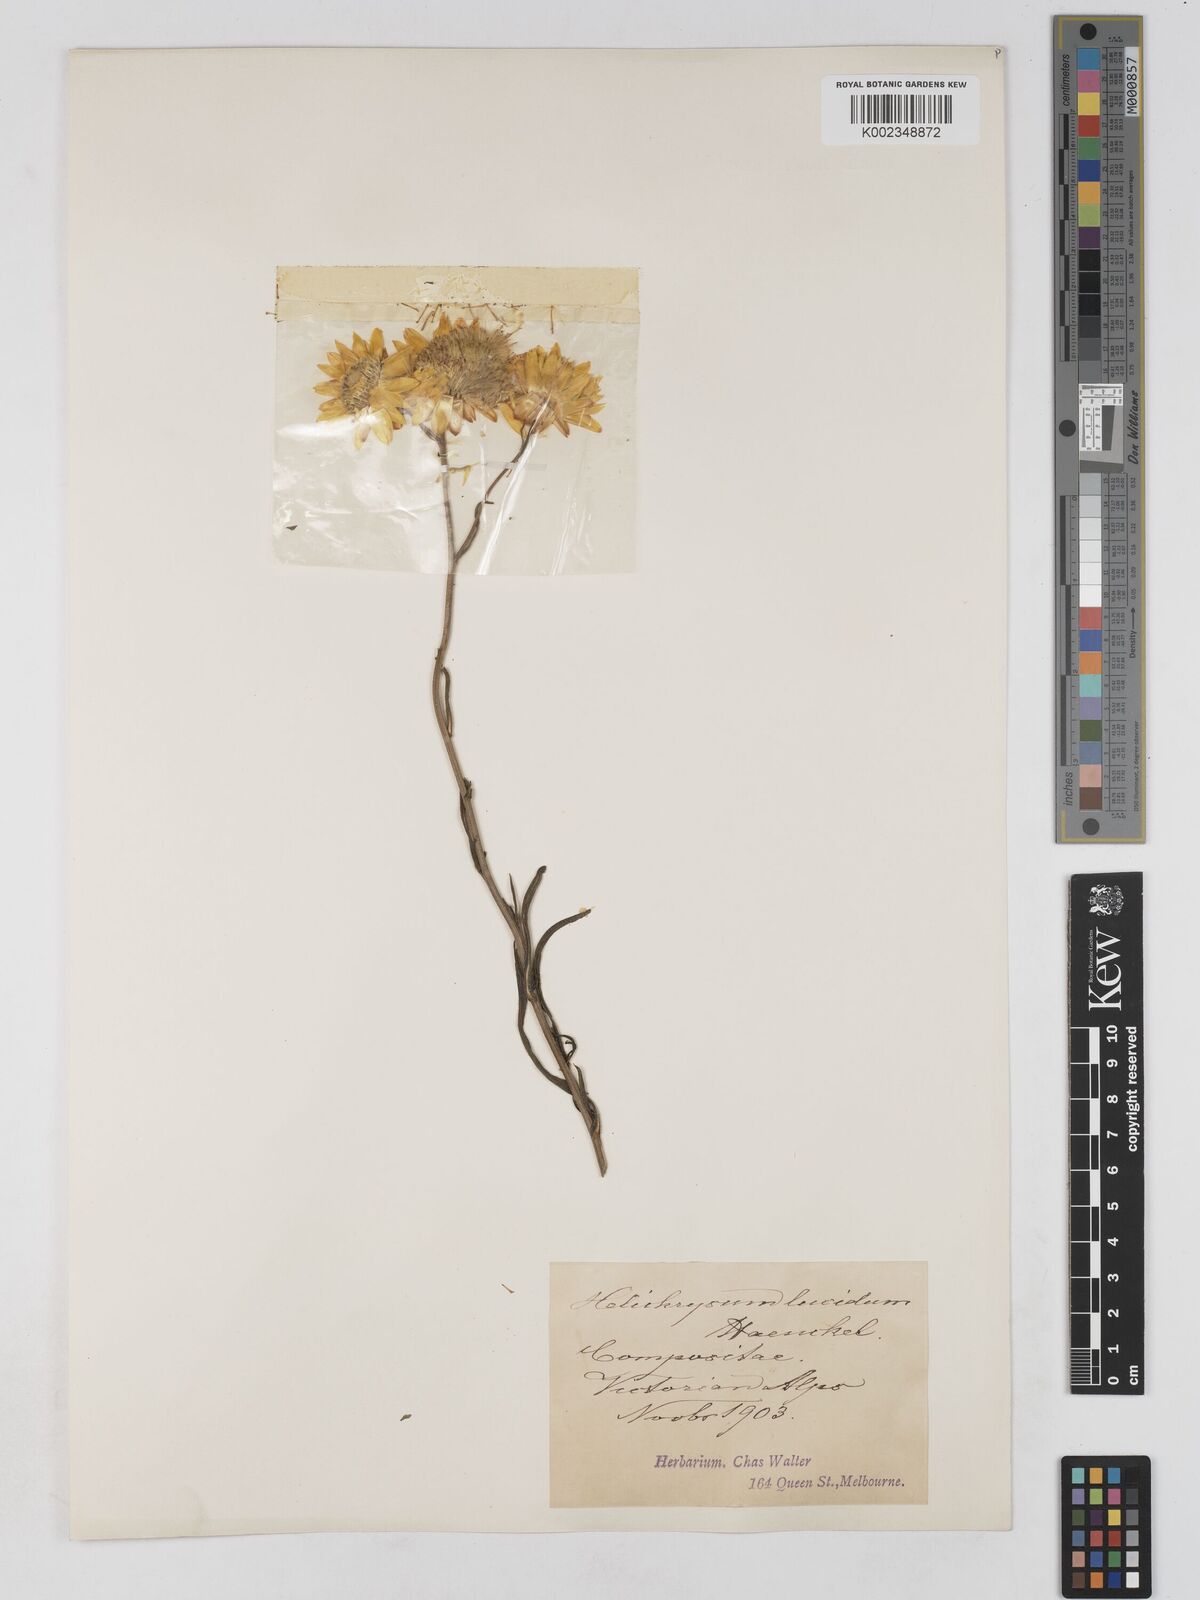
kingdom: Plantae
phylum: Tracheophyta
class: Magnoliopsida
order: Asterales
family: Asteraceae
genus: Xerochrysum
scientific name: Xerochrysum bracteatum
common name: Bracted strawflower
